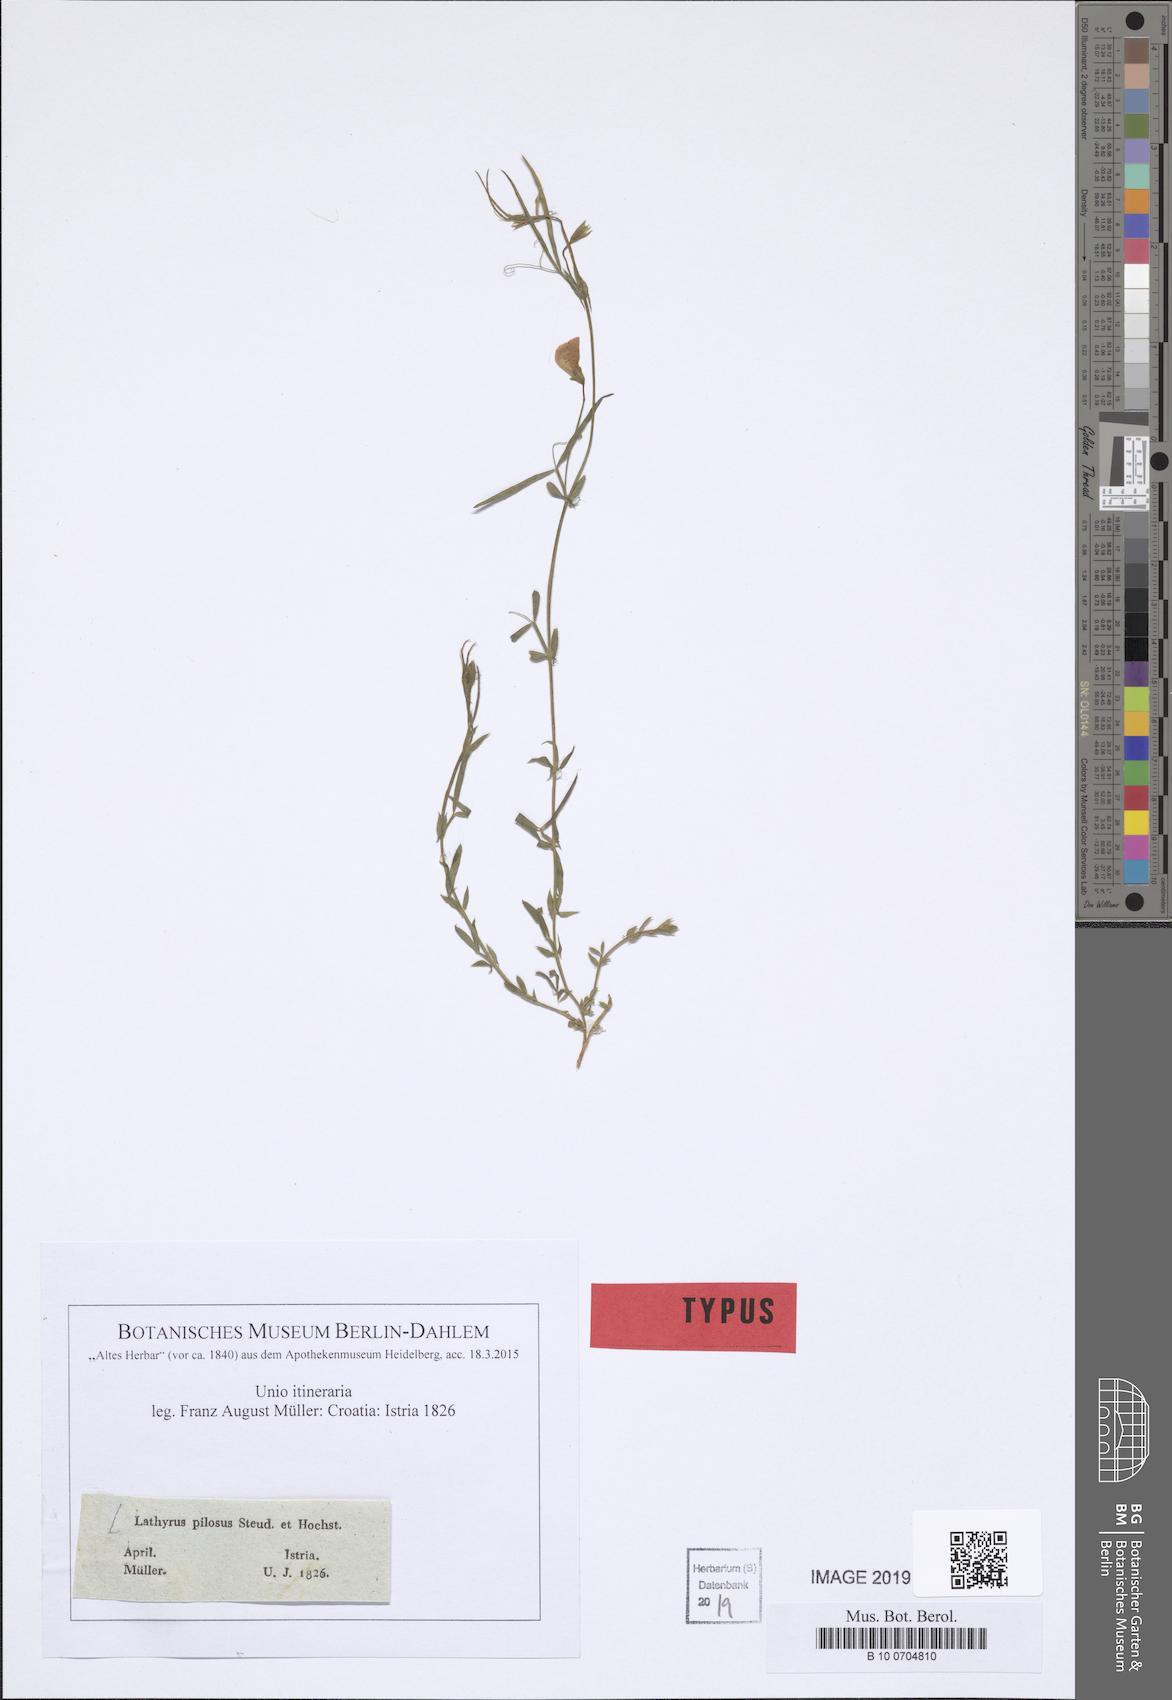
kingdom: Plantae
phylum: Tracheophyta
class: Magnoliopsida
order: Fabales
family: Fabaceae
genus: Lathyrus
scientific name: Lathyrus cicera
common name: Red vetchling
